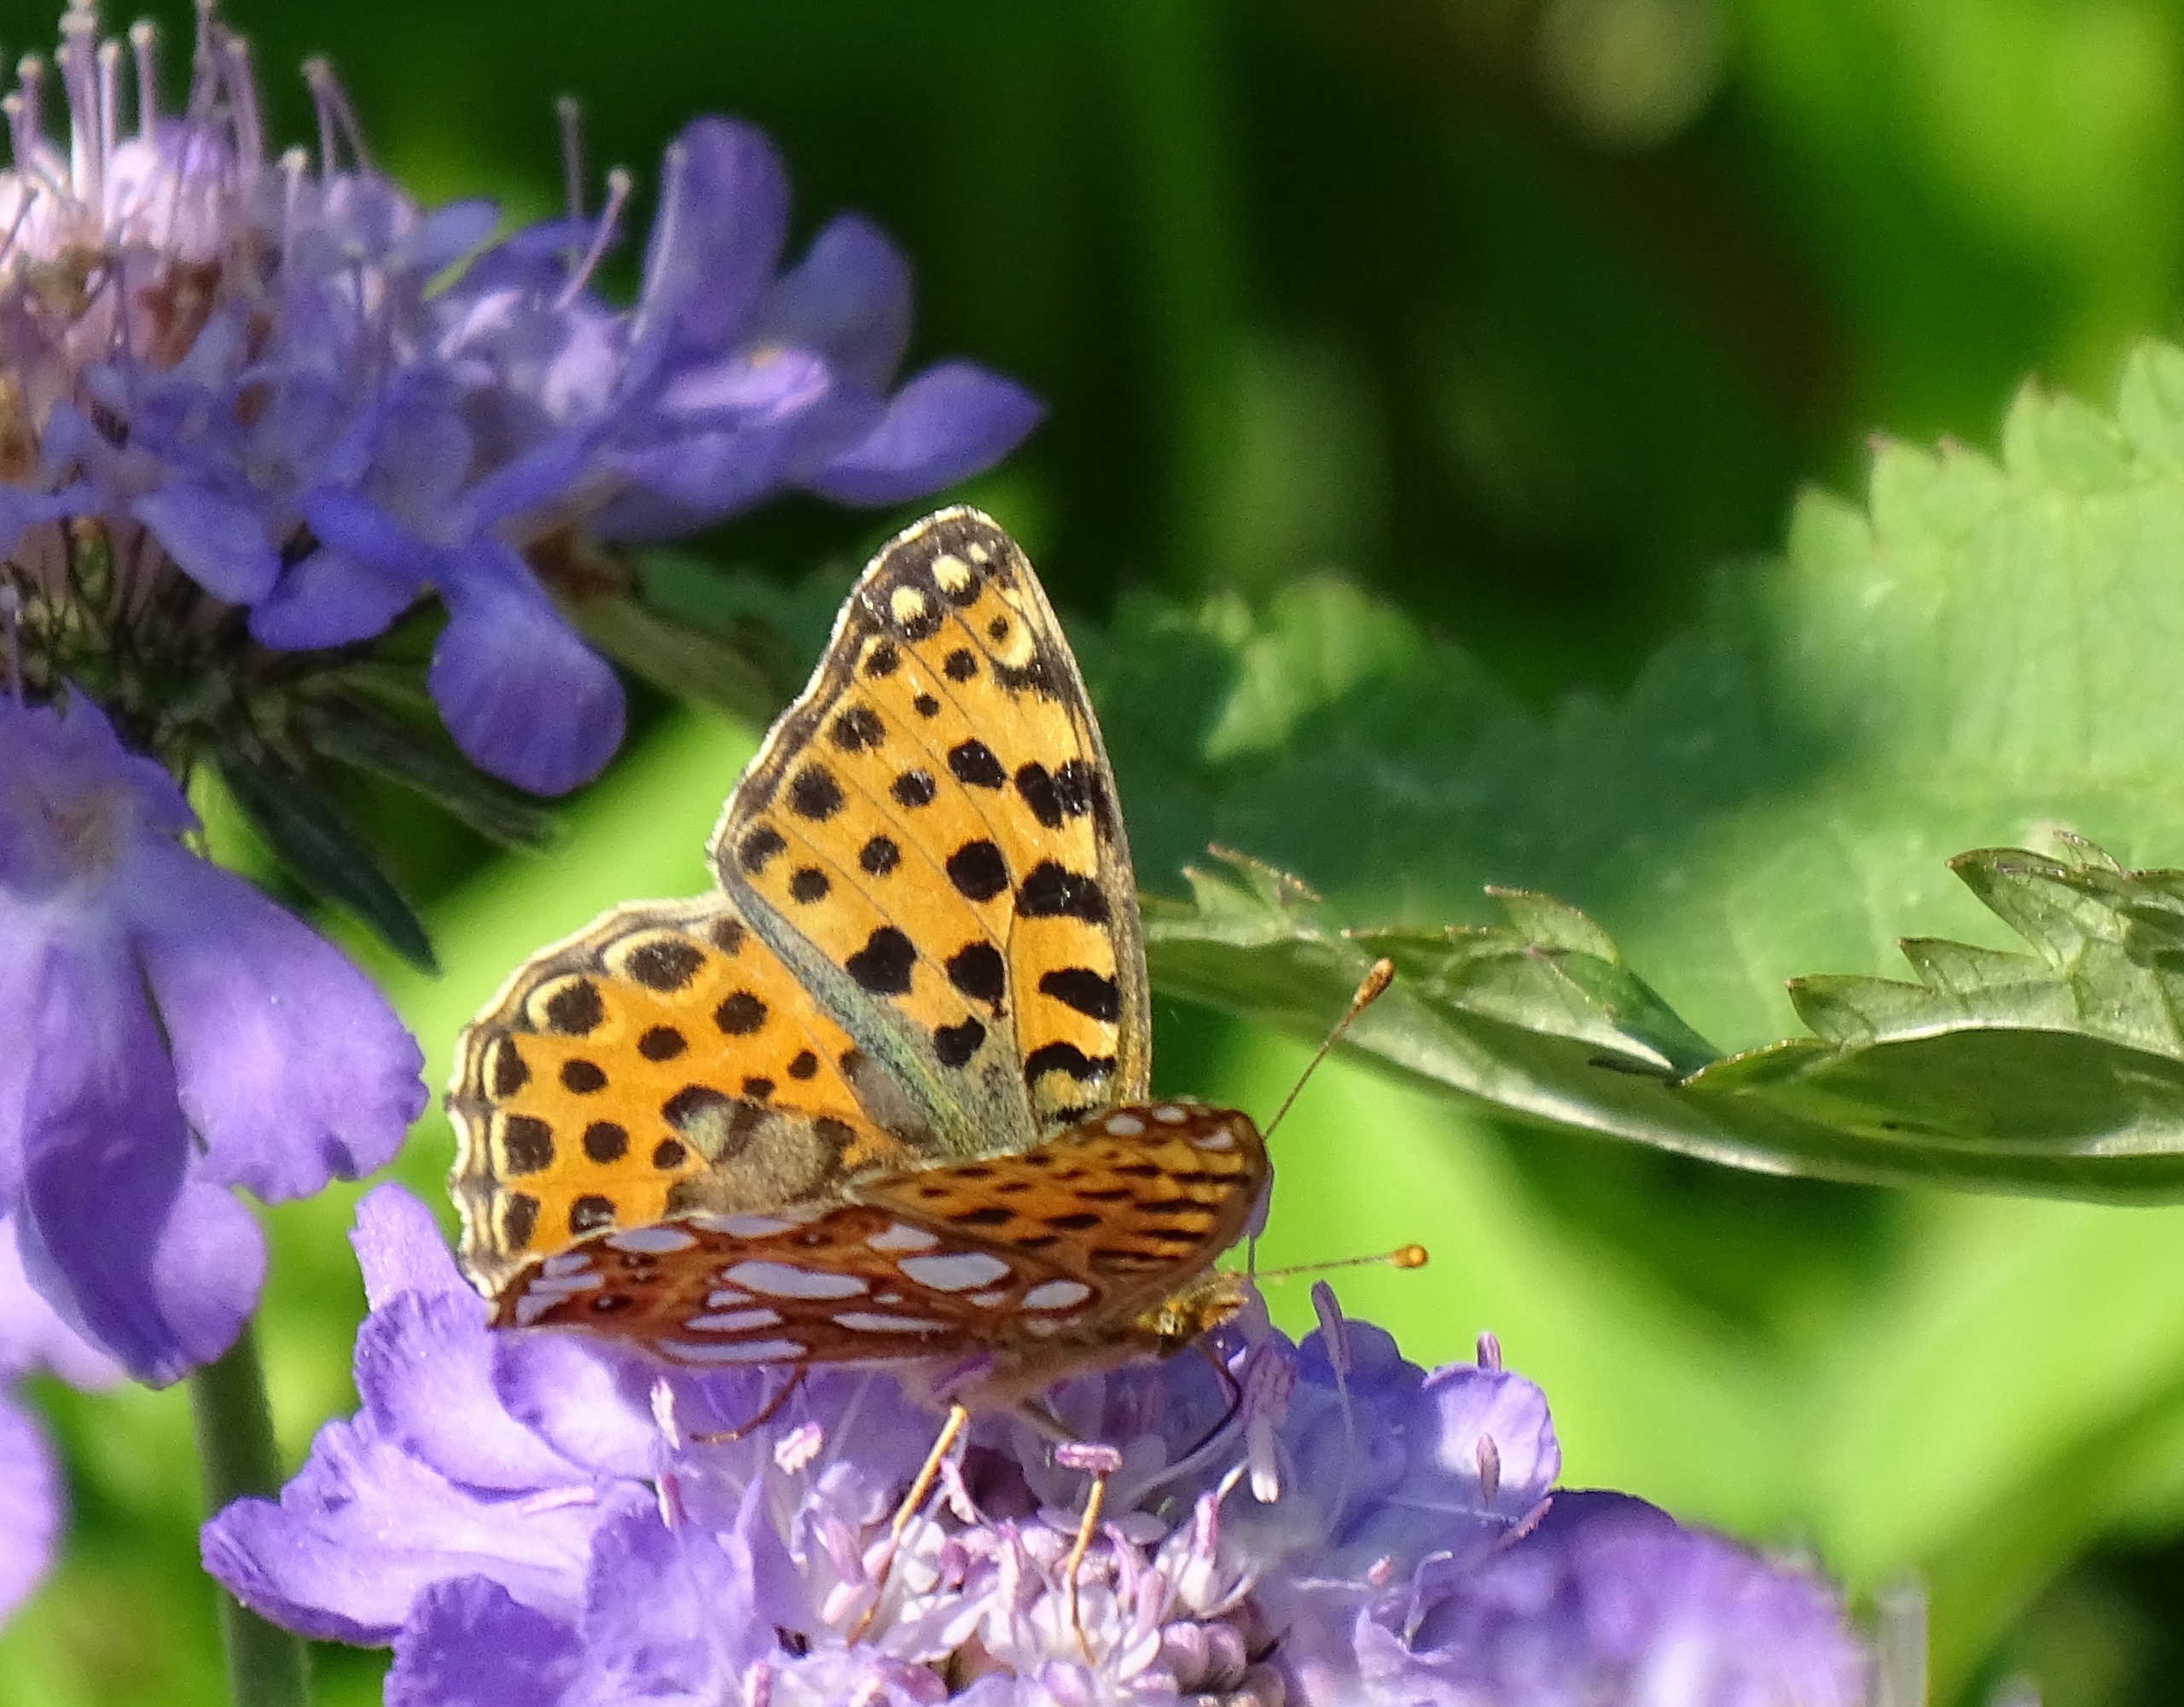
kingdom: Animalia
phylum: Arthropoda
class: Insecta
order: Lepidoptera
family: Nymphalidae
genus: Issoria
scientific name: Issoria lathonia
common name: Storplettet perlemorsommerfugl
